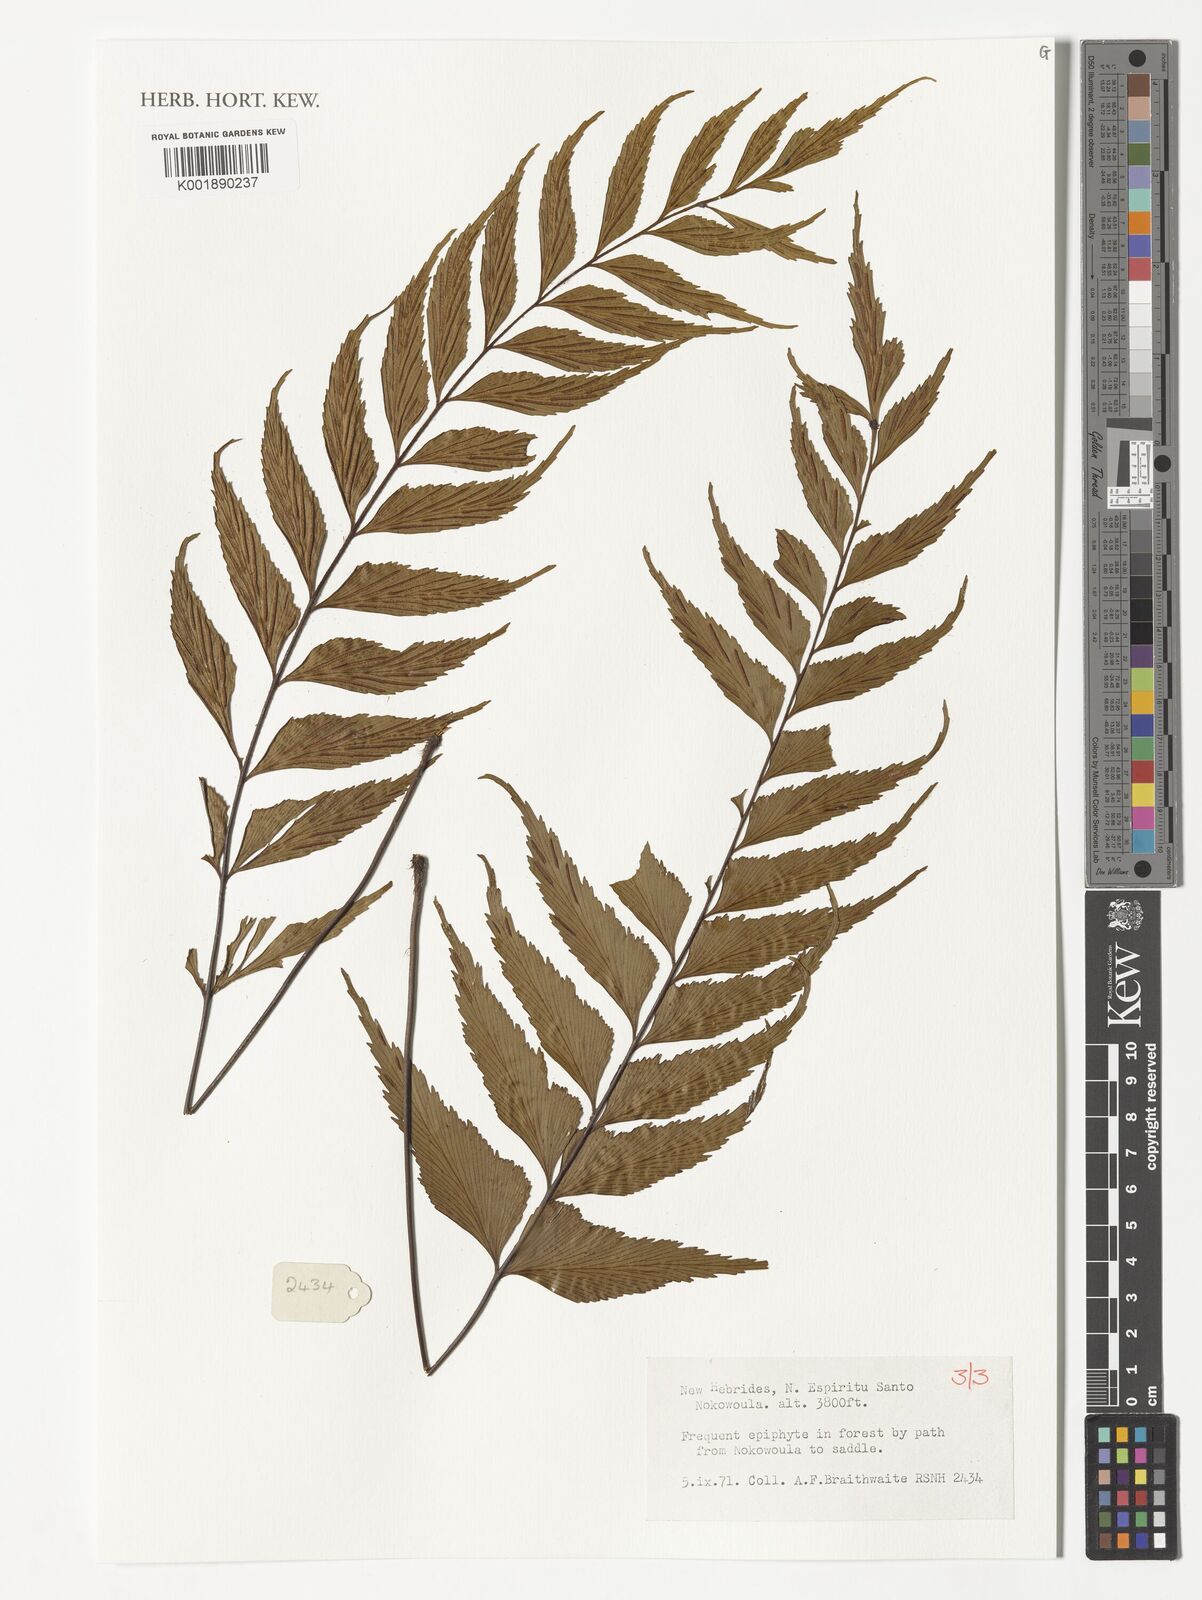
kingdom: Plantae
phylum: Tracheophyta
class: Polypodiopsida
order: Polypodiales
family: Aspleniaceae
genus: Asplenium
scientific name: Asplenium
